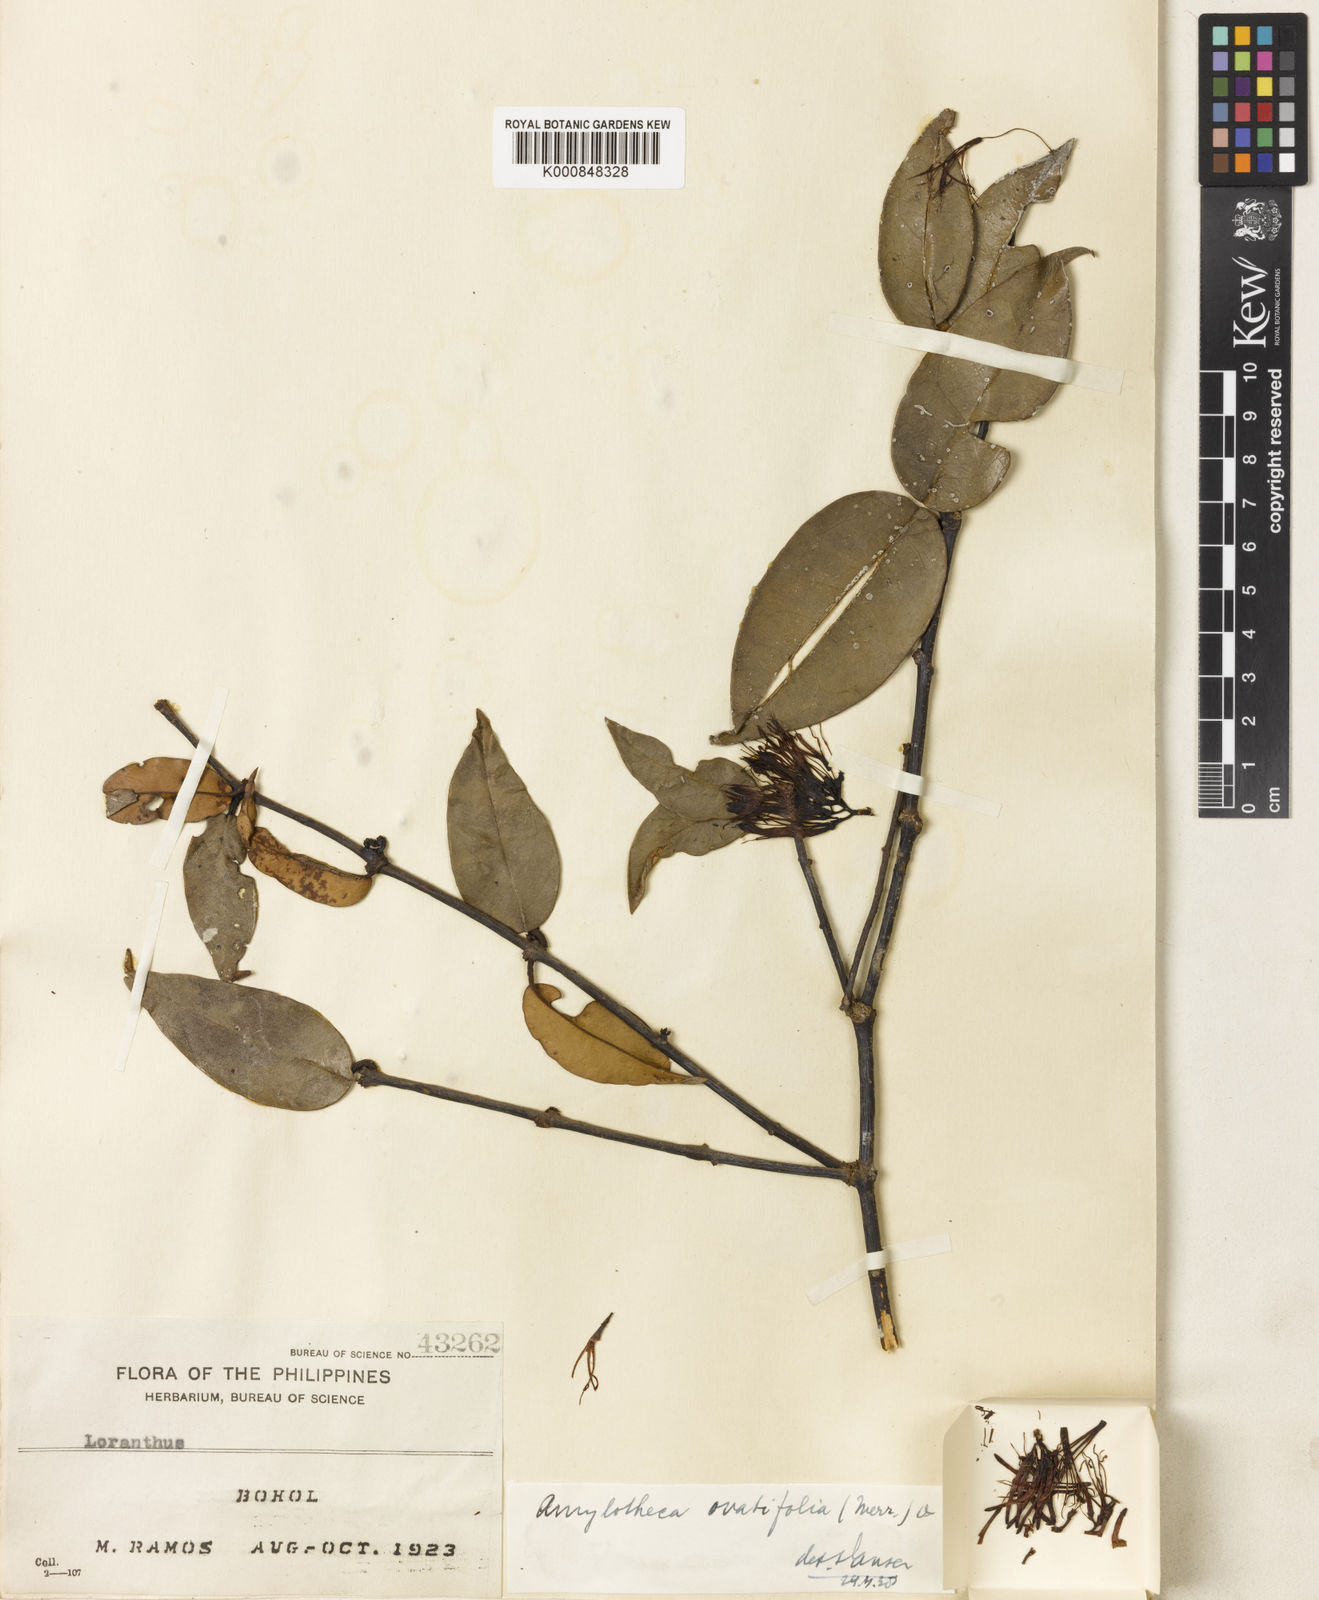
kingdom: Plantae
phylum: Tracheophyta
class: Magnoliopsida
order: Santalales
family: Loranthaceae
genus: Decaisnina
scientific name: Decaisnina ovatifolia
